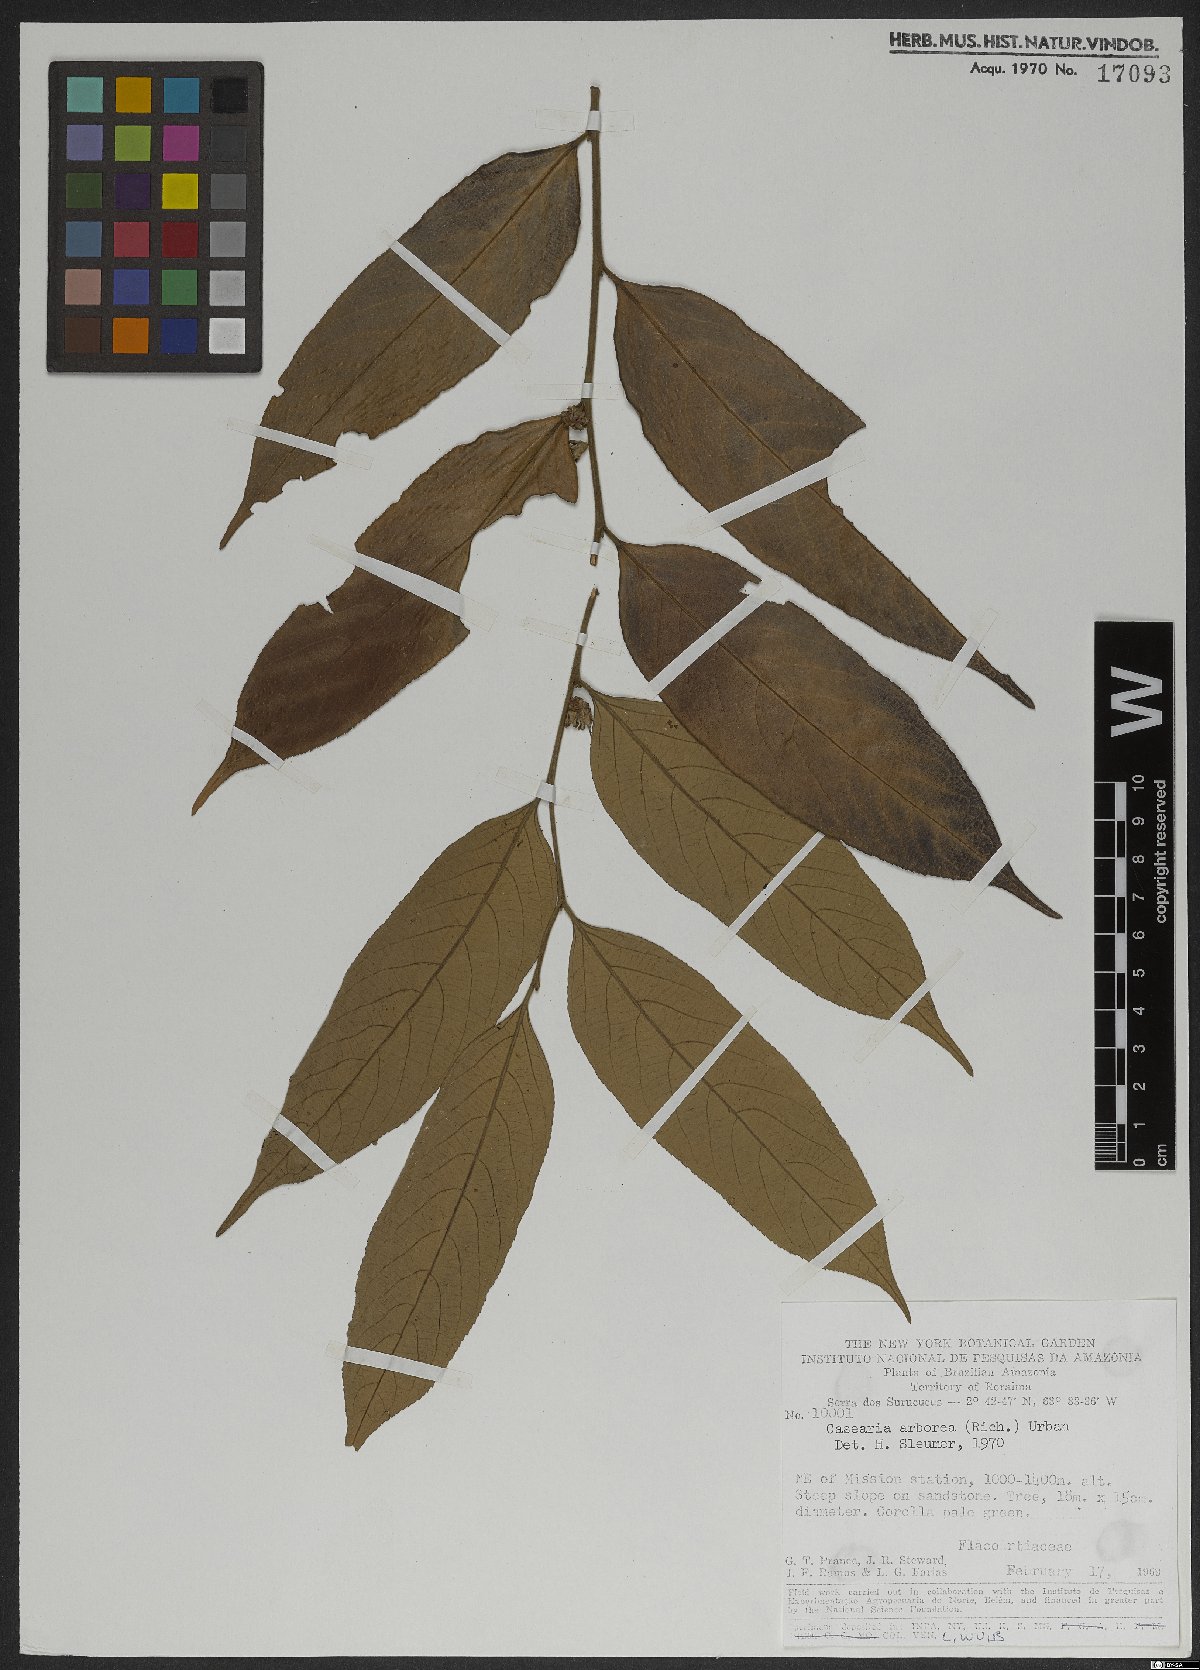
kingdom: Plantae
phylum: Tracheophyta
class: Magnoliopsida
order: Malpighiales
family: Salicaceae
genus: Casearia
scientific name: Casearia arborea
